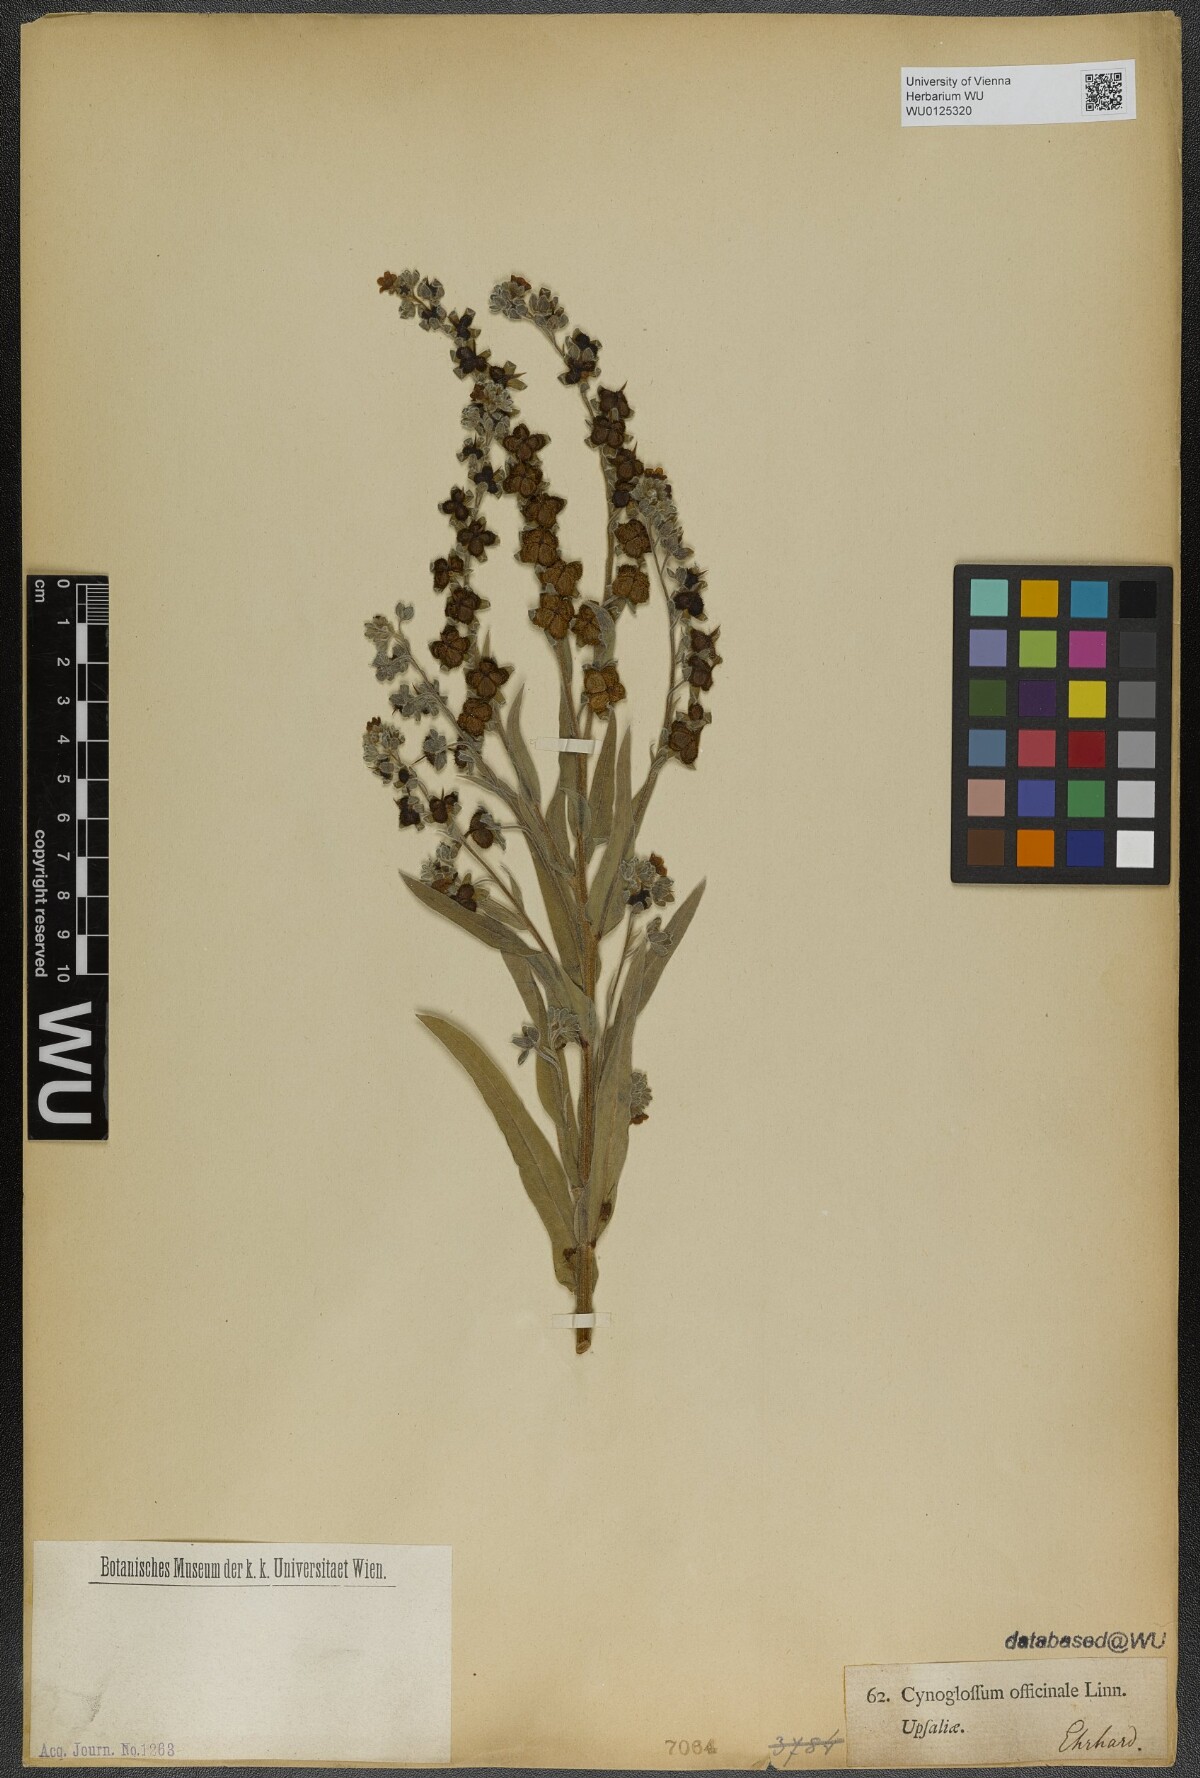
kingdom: Plantae
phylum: Tracheophyta
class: Magnoliopsida
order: Boraginales
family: Boraginaceae
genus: Cynoglossum
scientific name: Cynoglossum officinale
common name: Hound's-tongue
